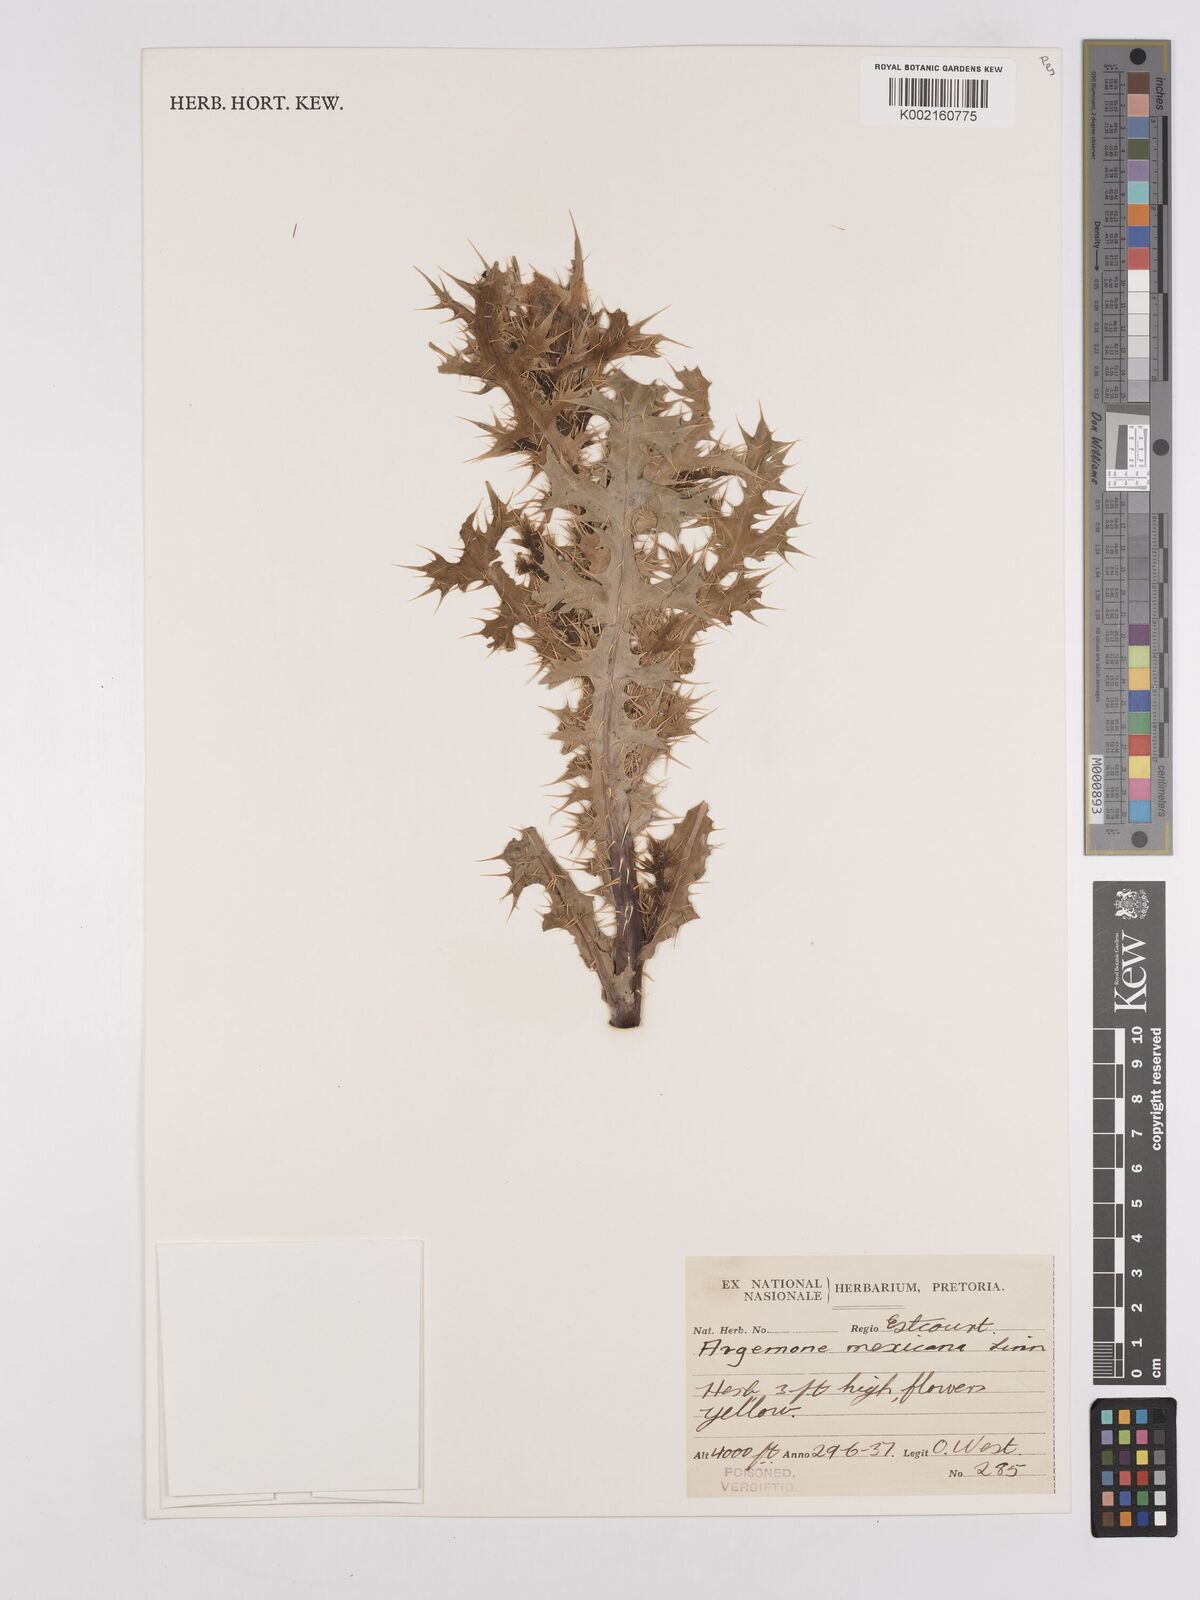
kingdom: Plantae
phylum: Tracheophyta
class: Magnoliopsida
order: Ranunculales
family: Papaveraceae
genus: Argemone
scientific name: Argemone mexicana
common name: Mexican poppy
